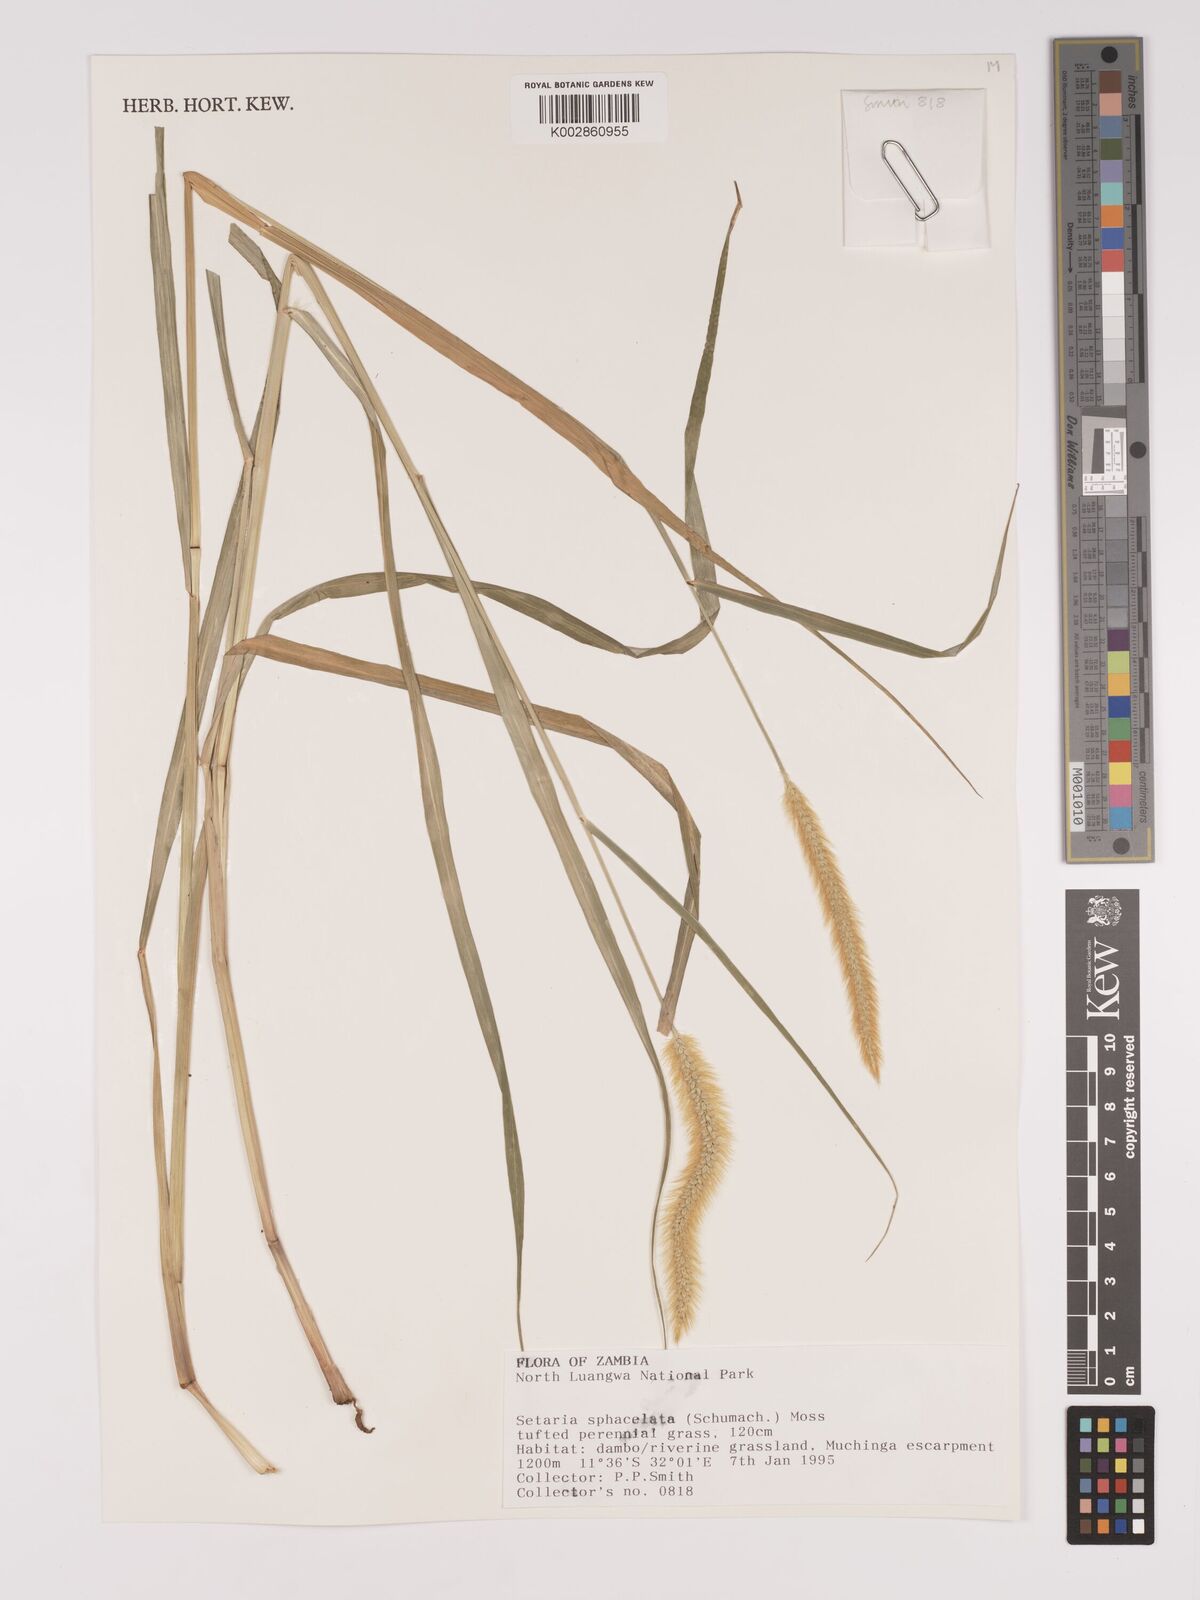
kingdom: Plantae
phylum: Tracheophyta
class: Liliopsida
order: Poales
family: Poaceae
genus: Setaria
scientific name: Setaria
